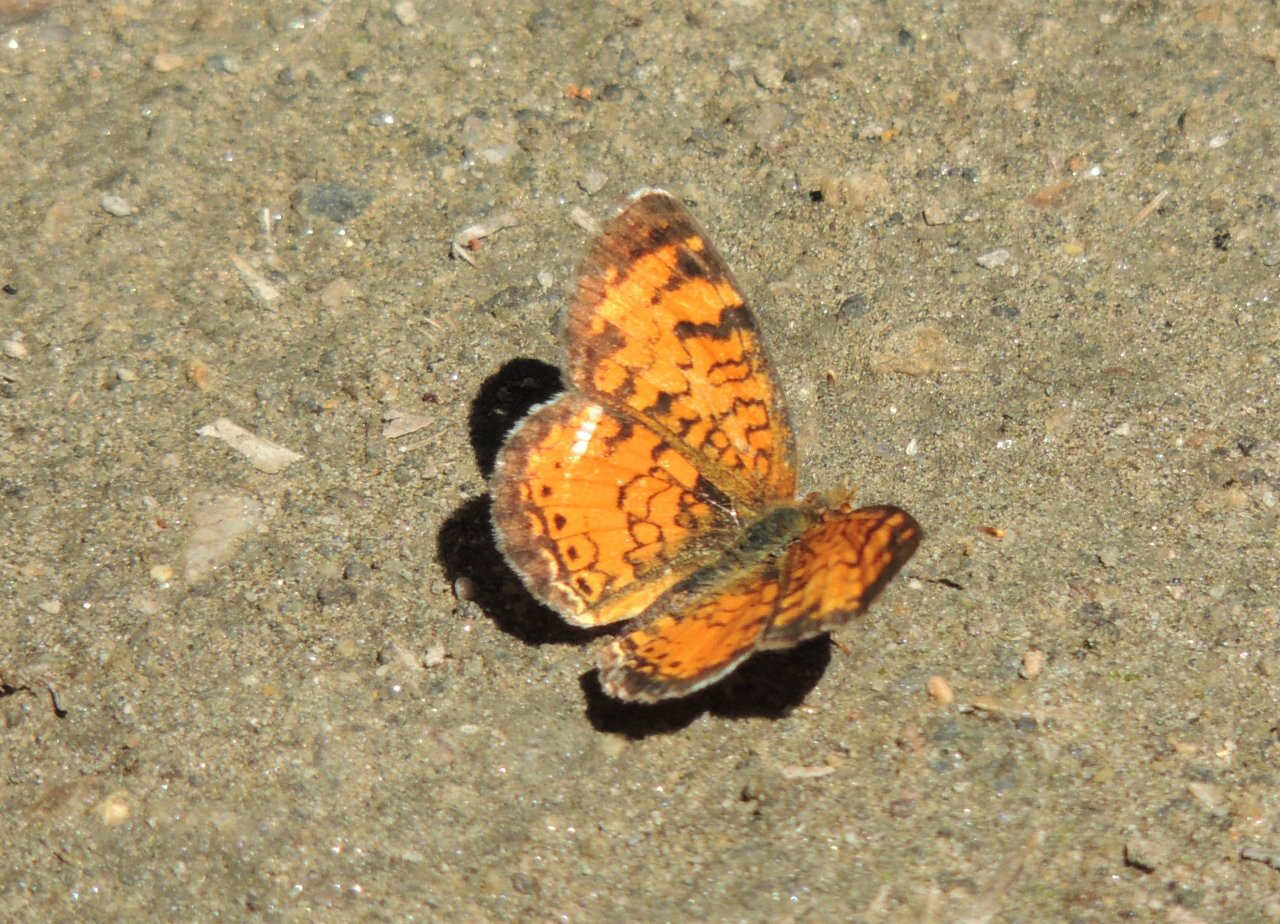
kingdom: Animalia
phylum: Arthropoda
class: Insecta
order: Lepidoptera
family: Nymphalidae
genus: Eresia
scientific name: Eresia aveyrona
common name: Mylitta Crescent
